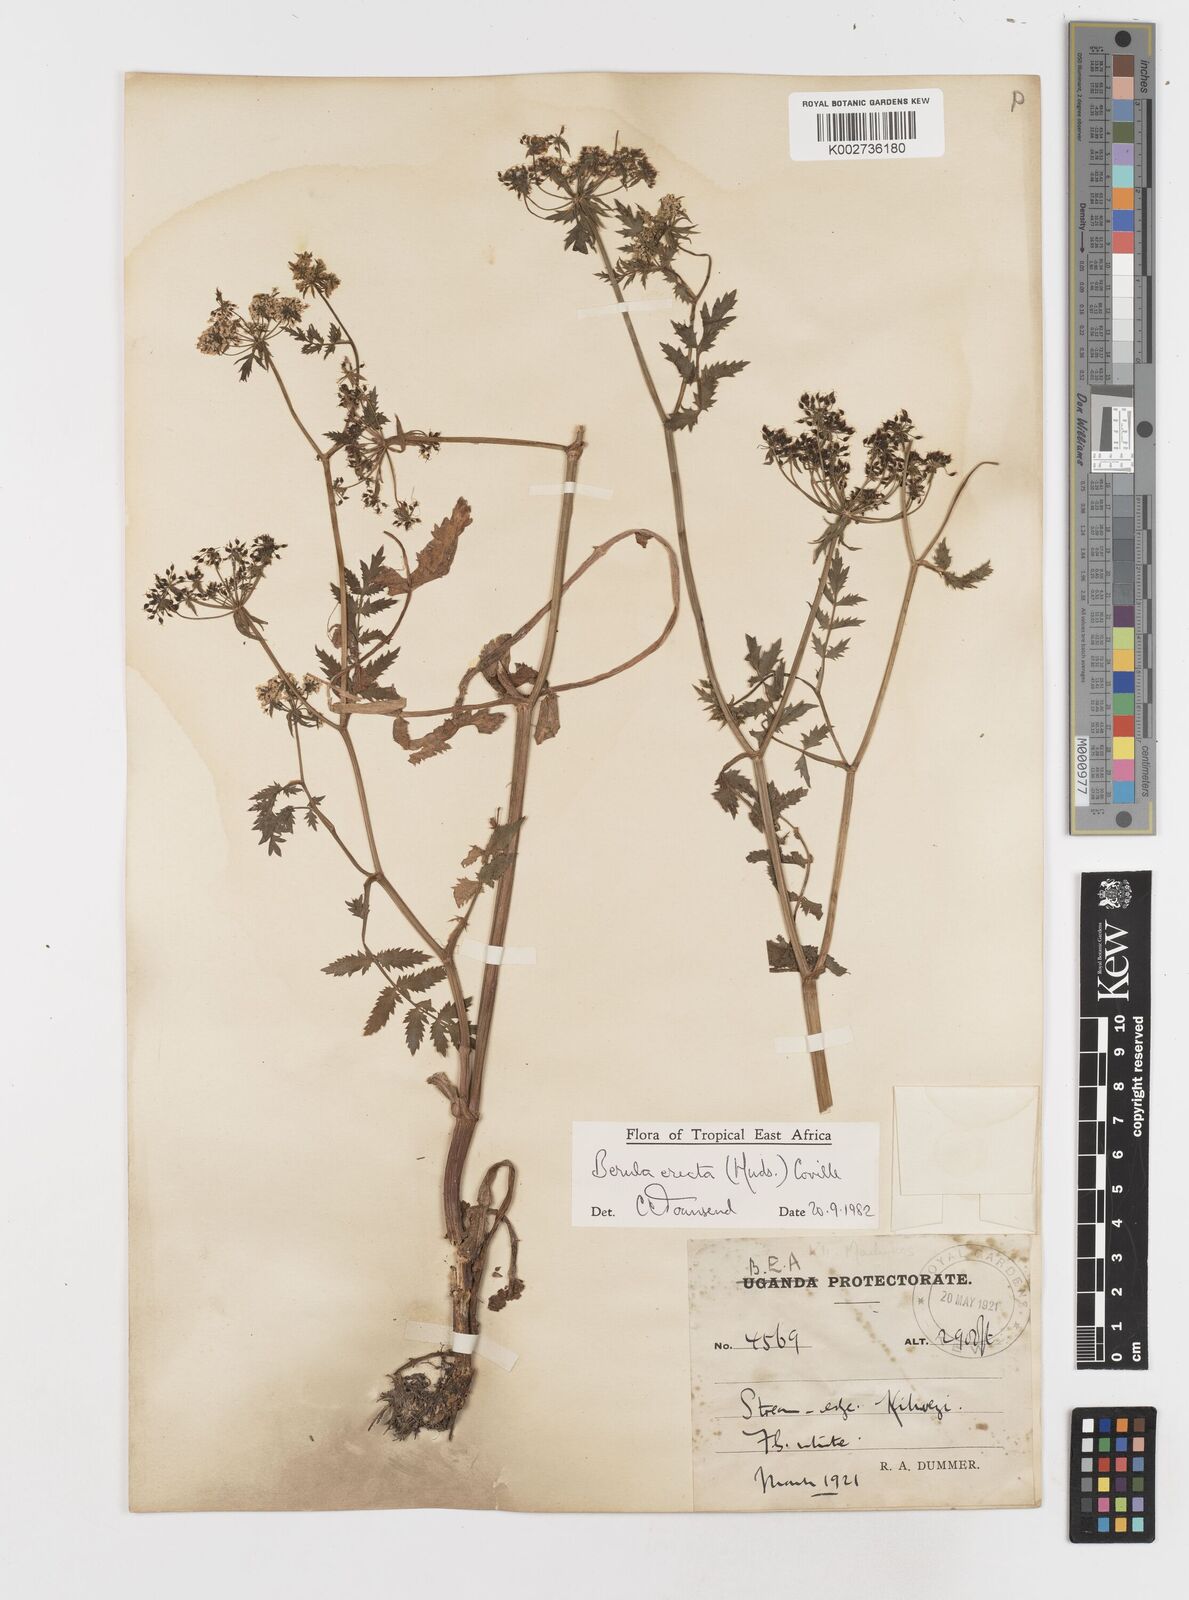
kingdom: Plantae
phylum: Tracheophyta
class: Magnoliopsida
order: Apiales
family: Apiaceae
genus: Berula
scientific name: Berula erecta
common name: Lesser water-parsnip
